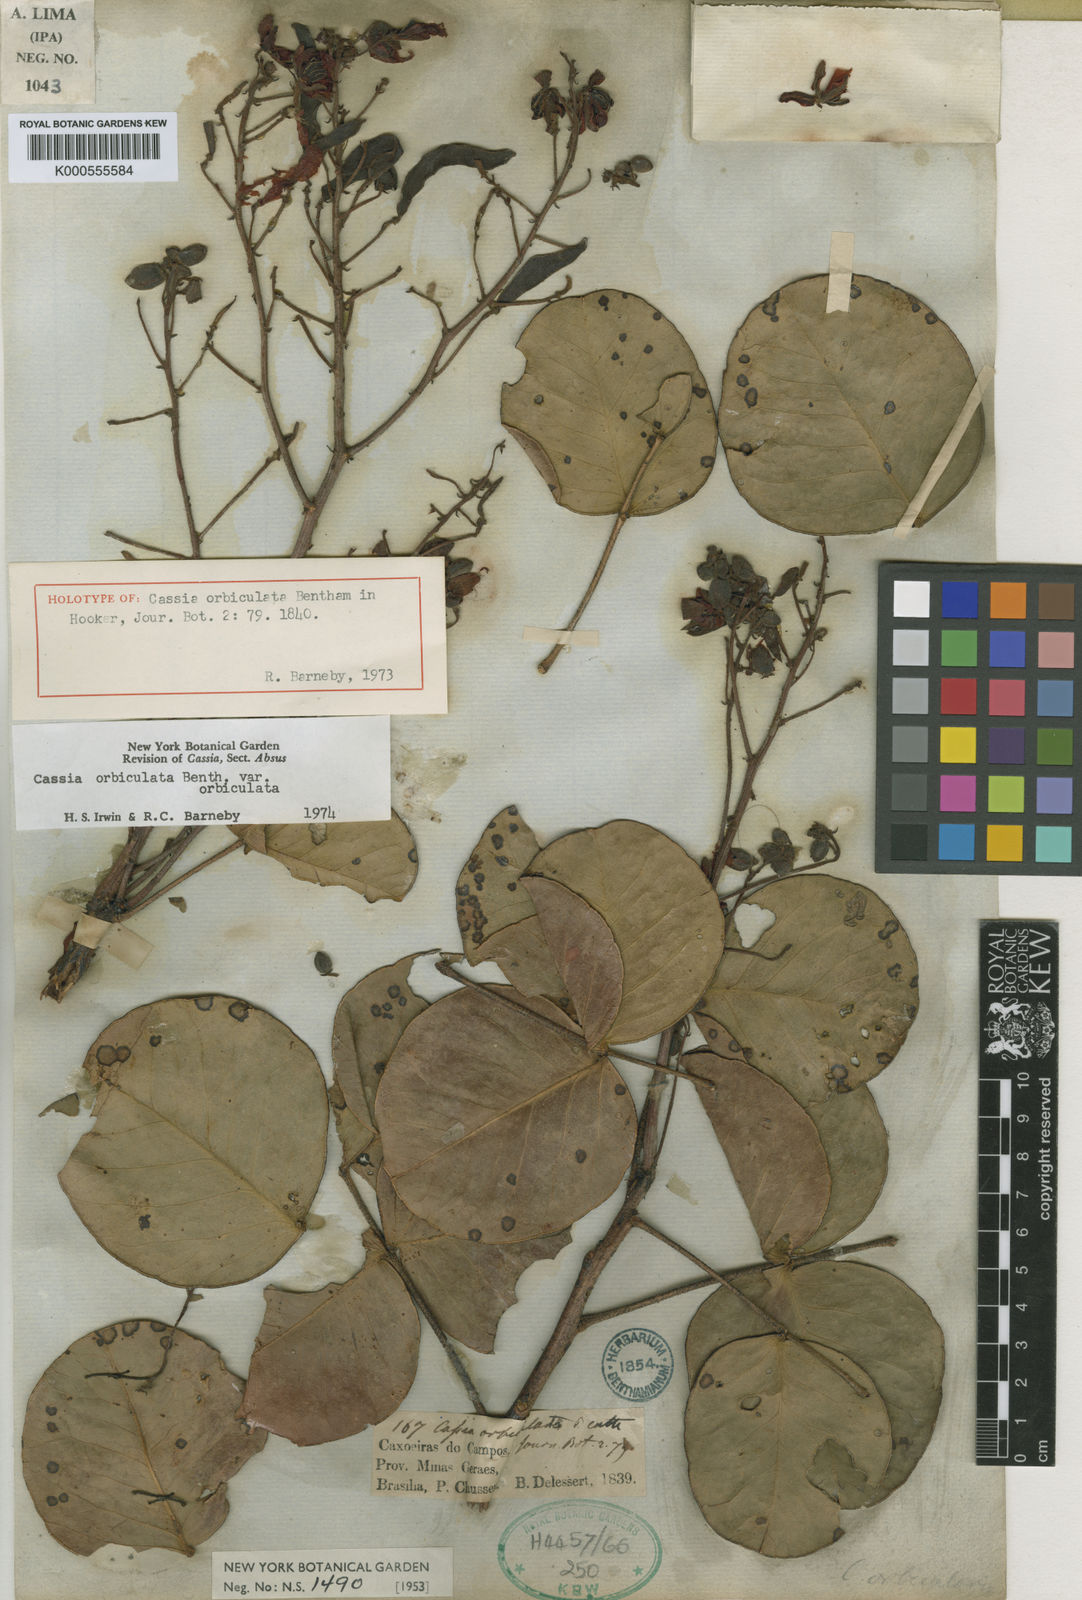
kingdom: Plantae
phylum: Tracheophyta
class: Magnoliopsida
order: Fabales
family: Fabaceae
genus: Chamaecrista
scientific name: Chamaecrista orbiculata
